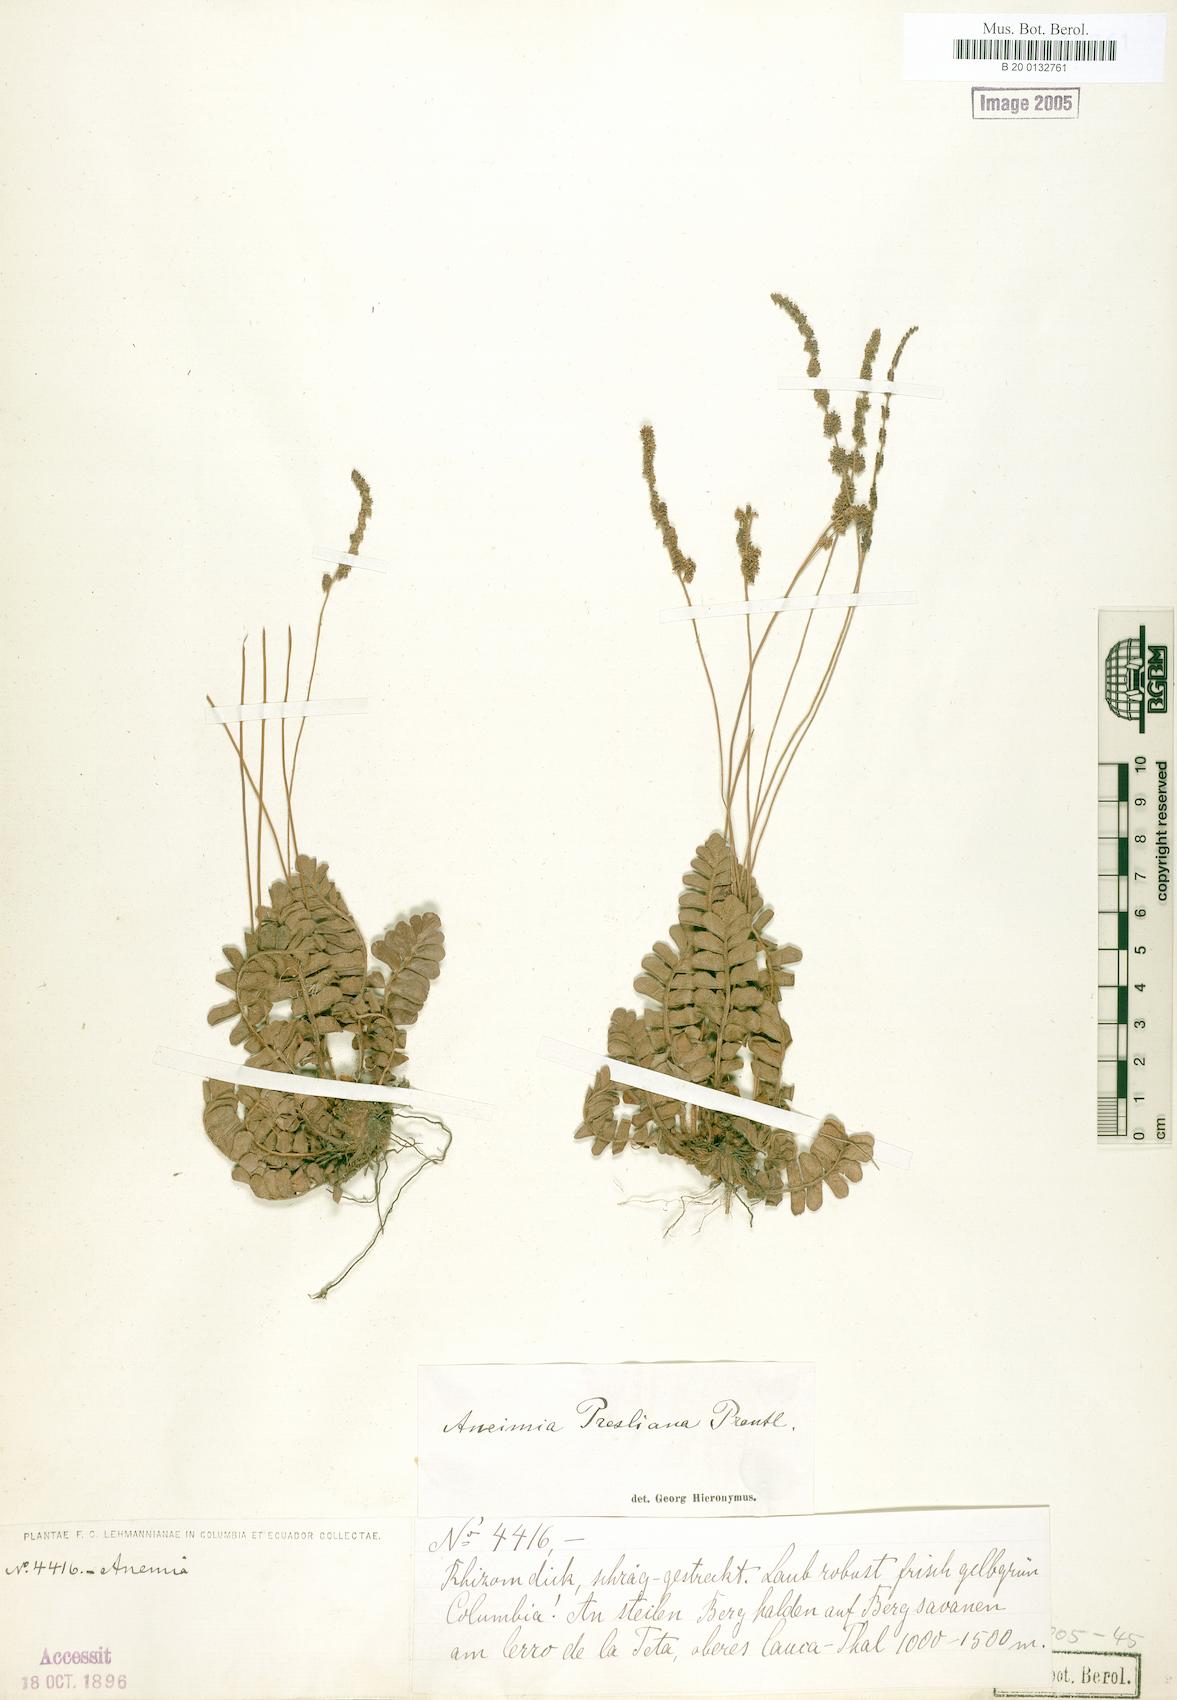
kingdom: Plantae
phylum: Tracheophyta
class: Polypodiopsida
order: Schizaeales
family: Anemiaceae
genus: Anemia
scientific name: Anemia presliana
